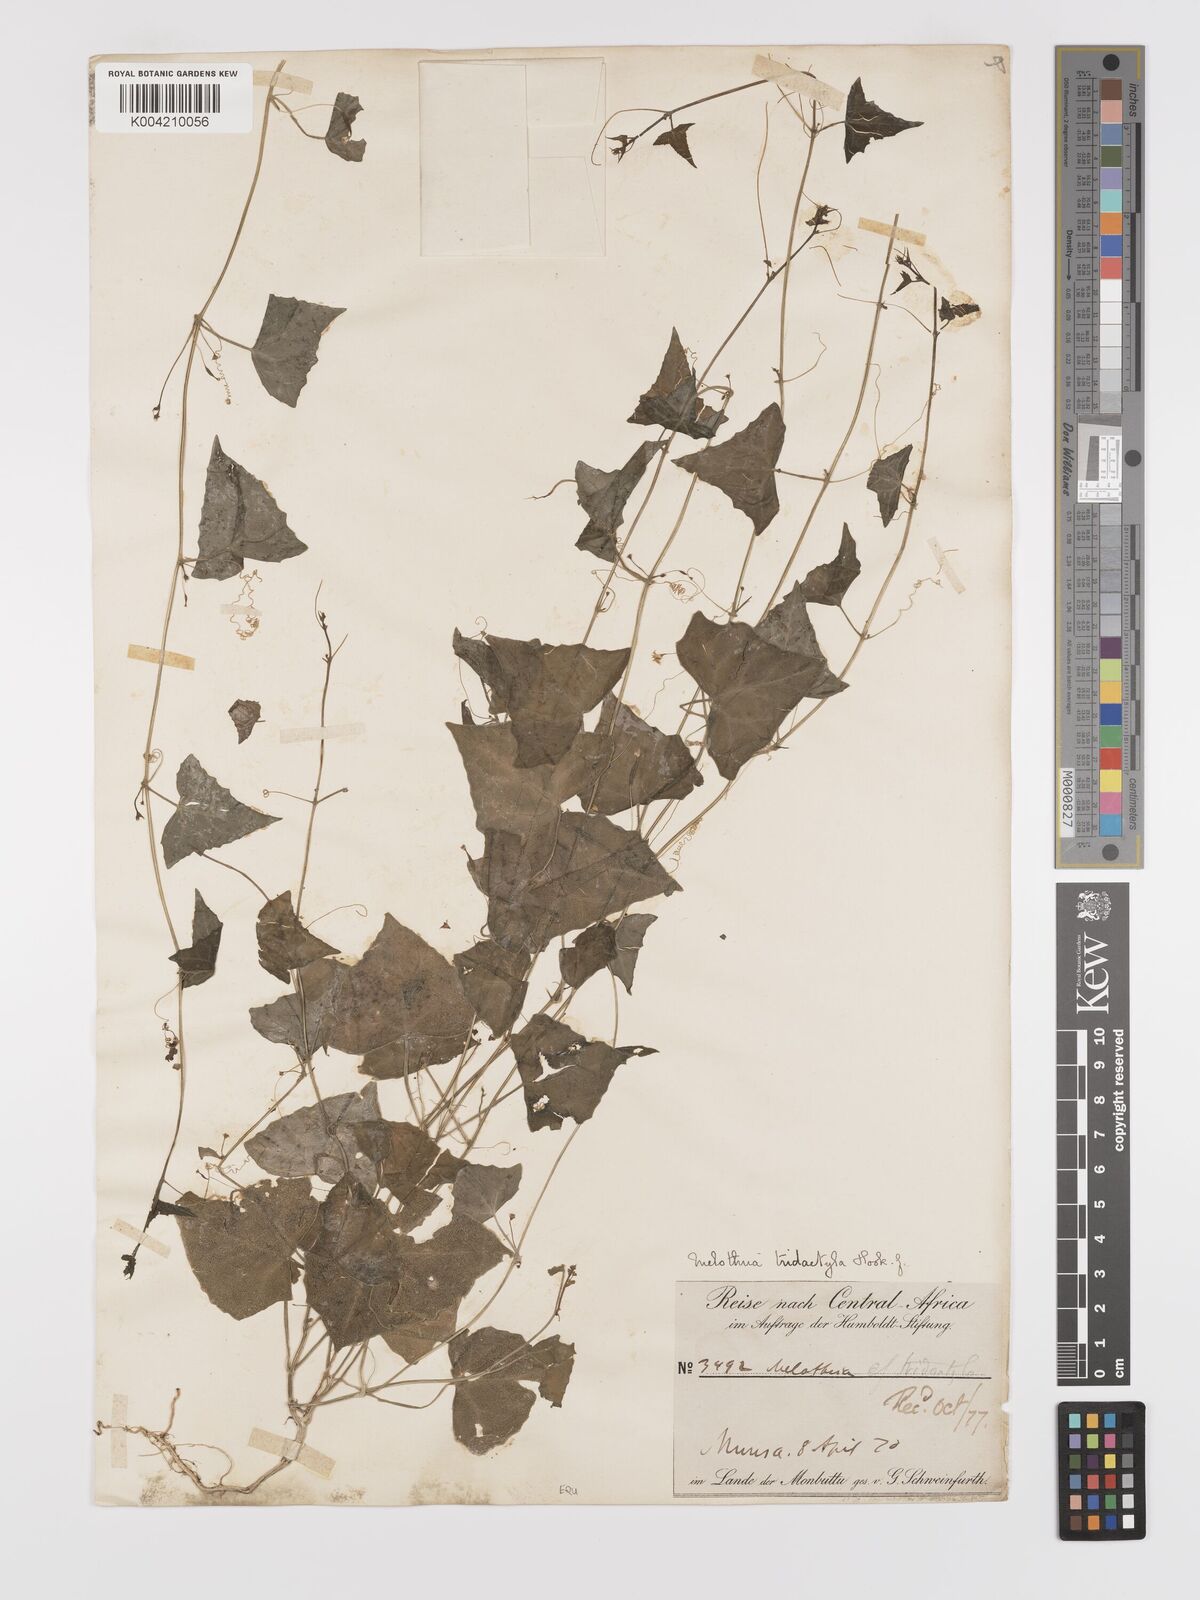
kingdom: Plantae
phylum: Tracheophyta
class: Magnoliopsida
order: Cucurbitales
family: Cucurbitaceae
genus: Zehneria
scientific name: Zehneria thwaitesii
